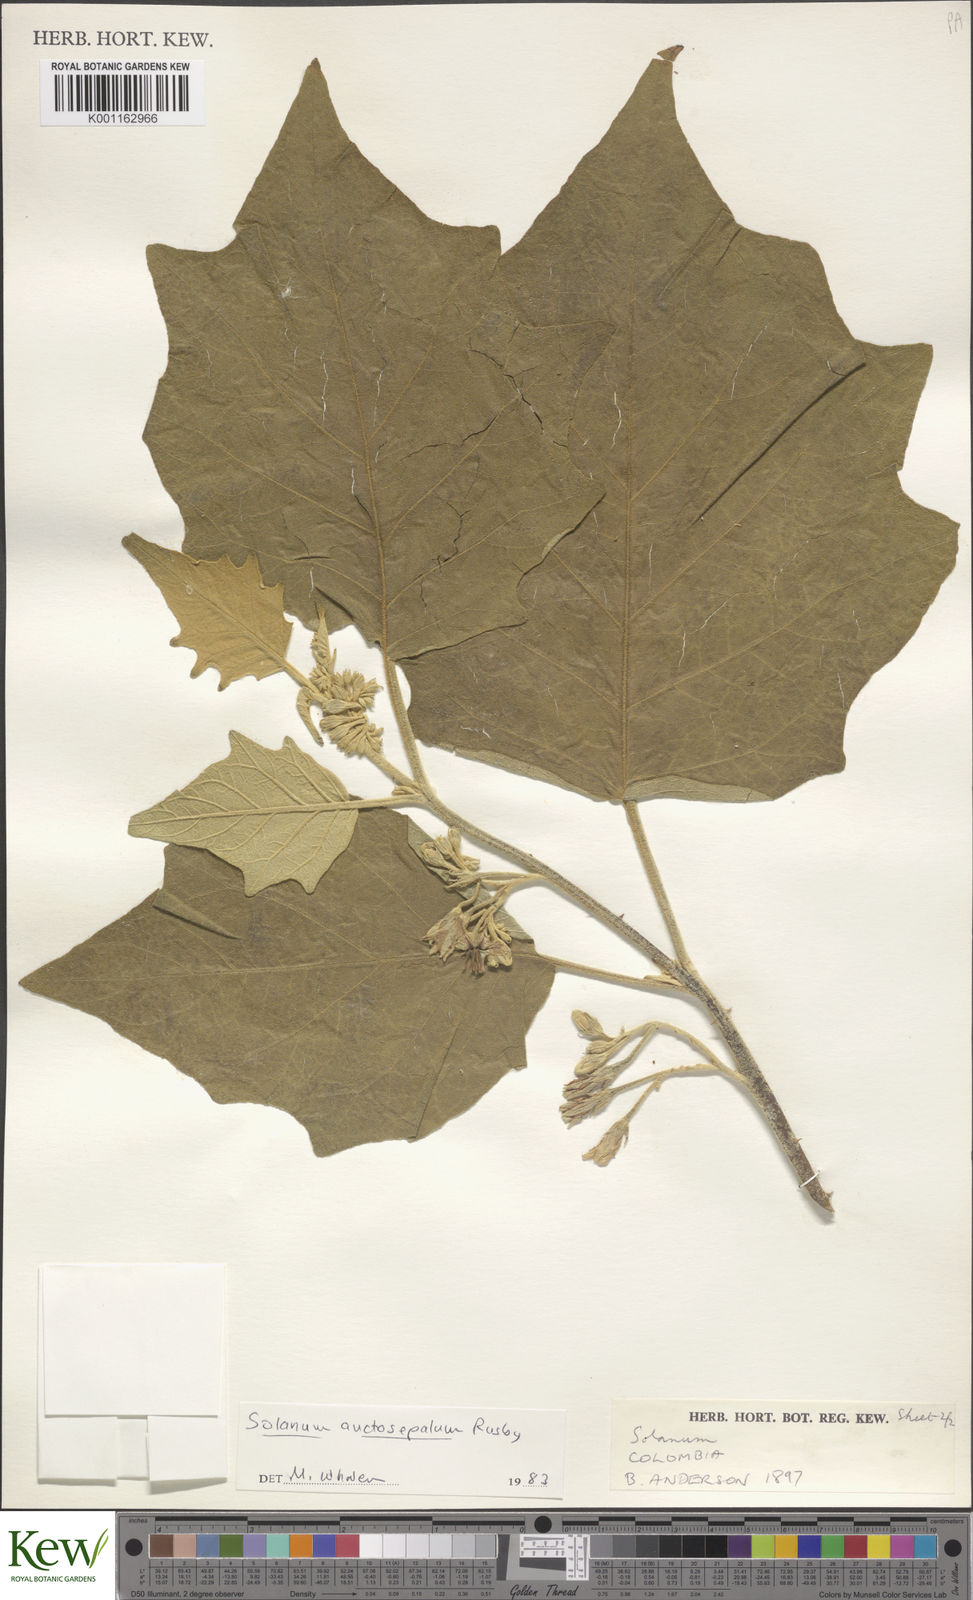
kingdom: Plantae
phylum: Tracheophyta
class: Magnoliopsida
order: Solanales
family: Solanaceae
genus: Solanum
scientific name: Solanum stellatiglandulosum
